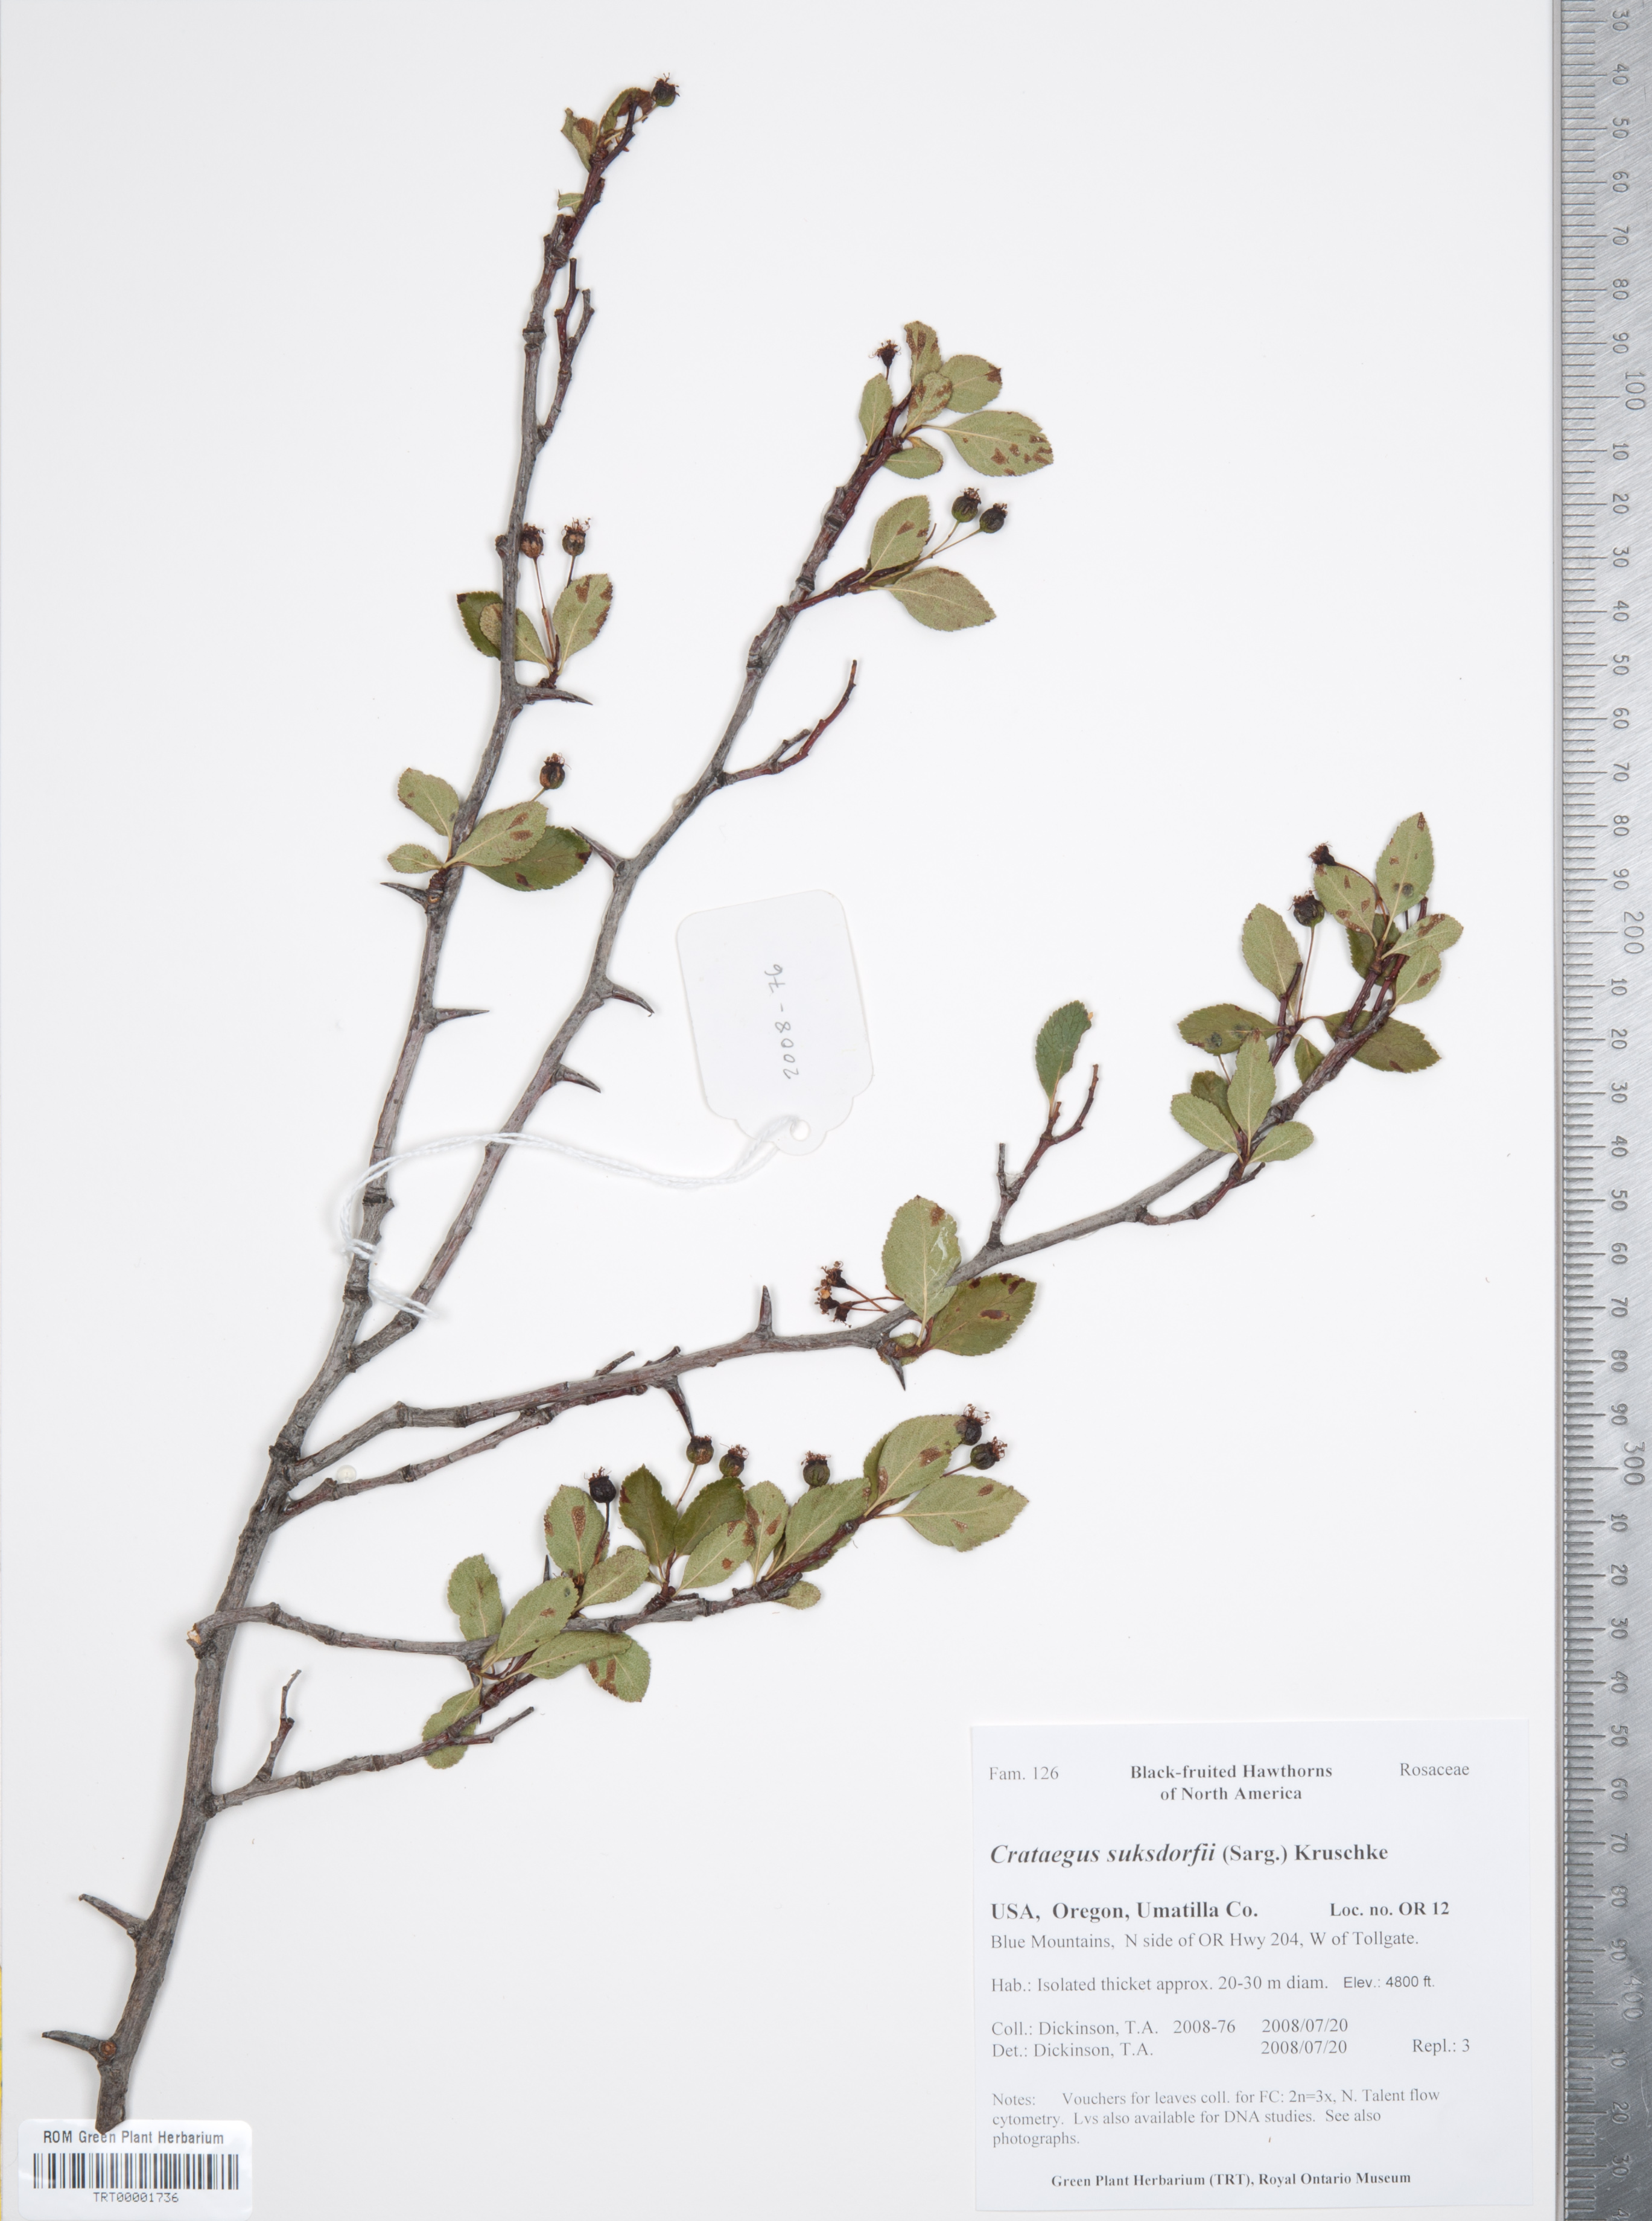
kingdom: Plantae
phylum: Tracheophyta
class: Magnoliopsida
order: Rosales
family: Rosaceae
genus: Crataegus
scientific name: Crataegus gaylussacia
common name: Huckleberry hawthorn
